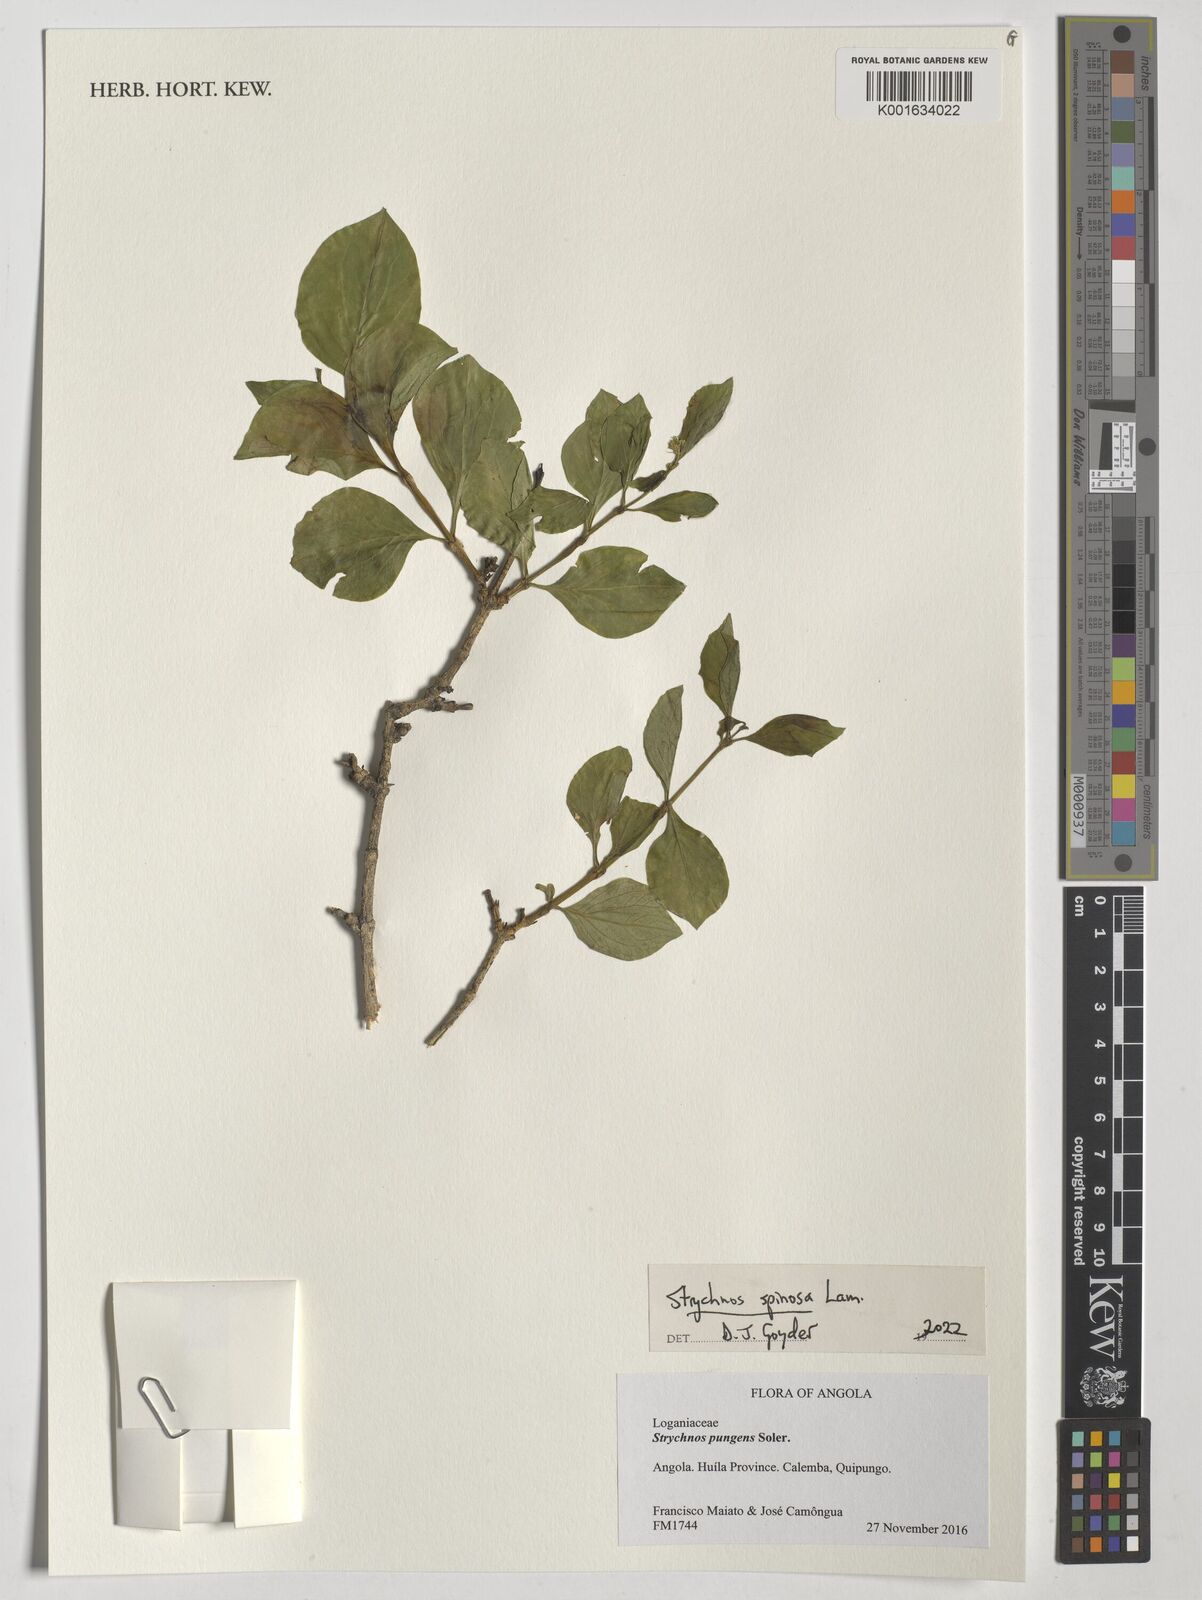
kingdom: Plantae
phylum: Tracheophyta
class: Magnoliopsida
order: Gentianales
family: Loganiaceae
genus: Strychnos
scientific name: Strychnos spinosa
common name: Natal orange
